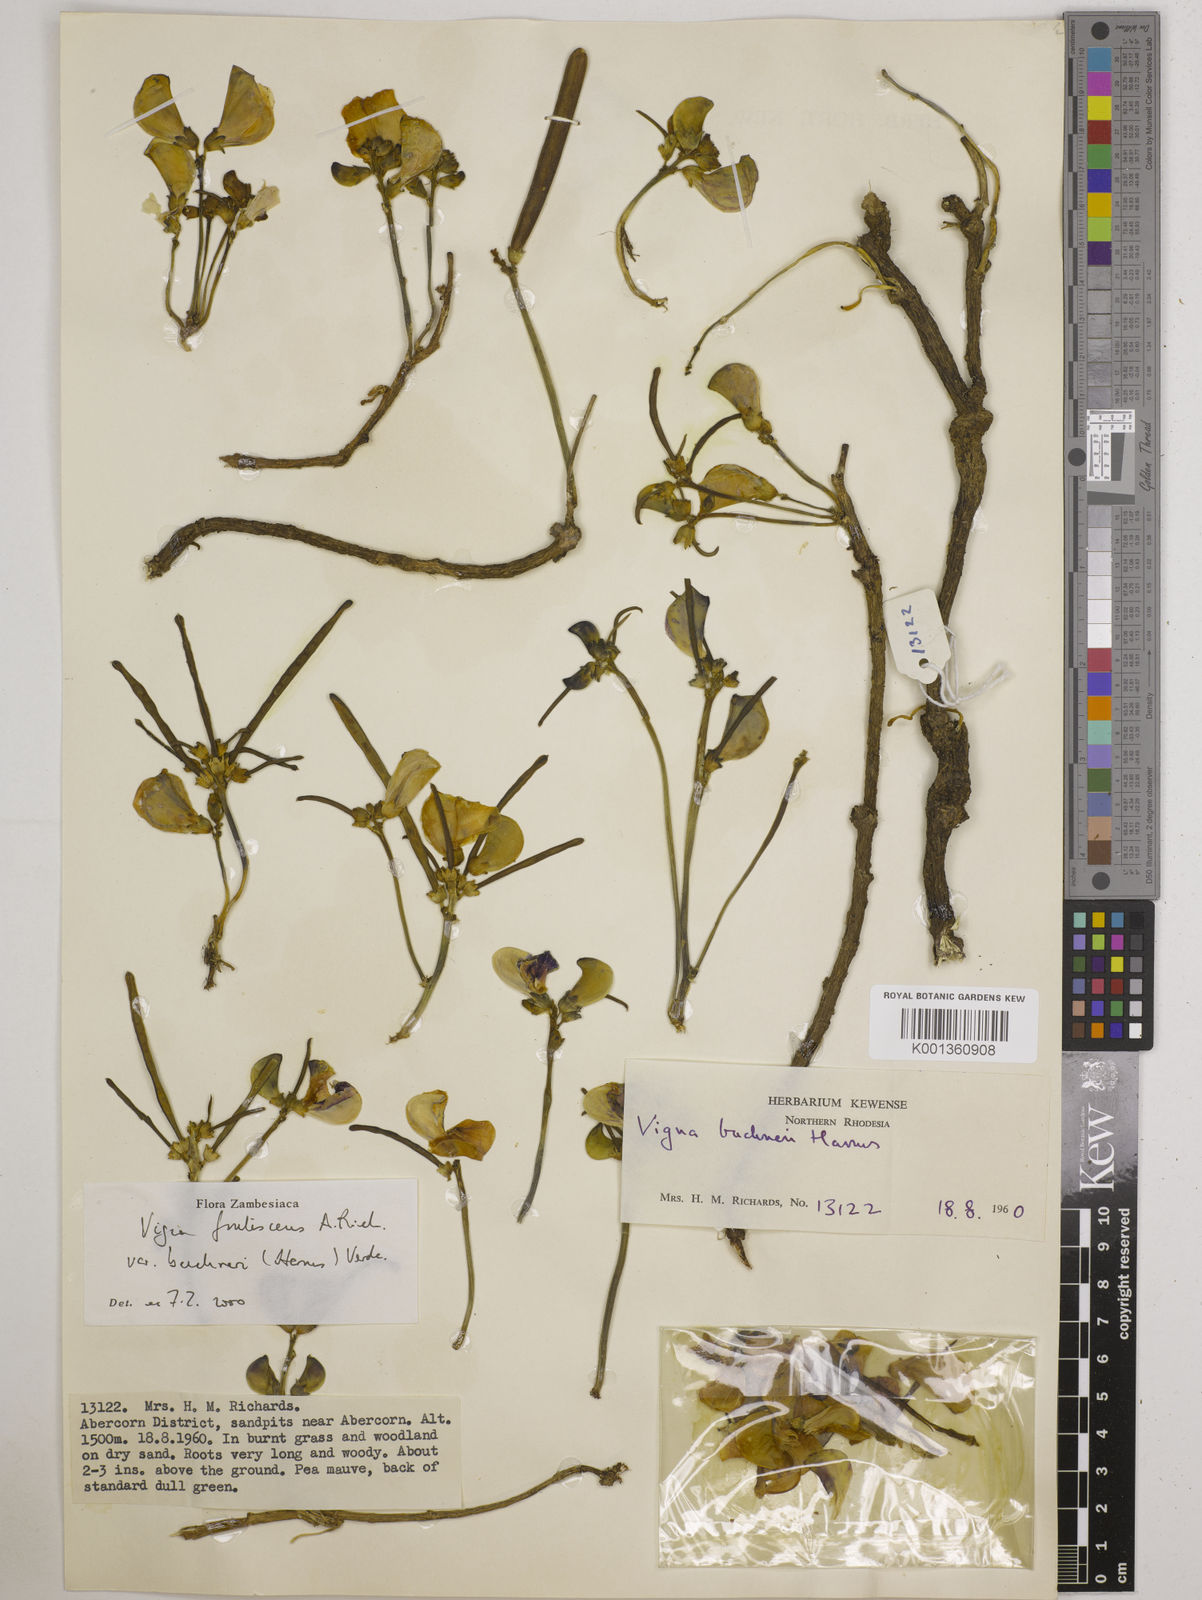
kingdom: Plantae
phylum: Tracheophyta
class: Magnoliopsida
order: Fabales
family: Fabaceae
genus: Vigna
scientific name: Vigna
